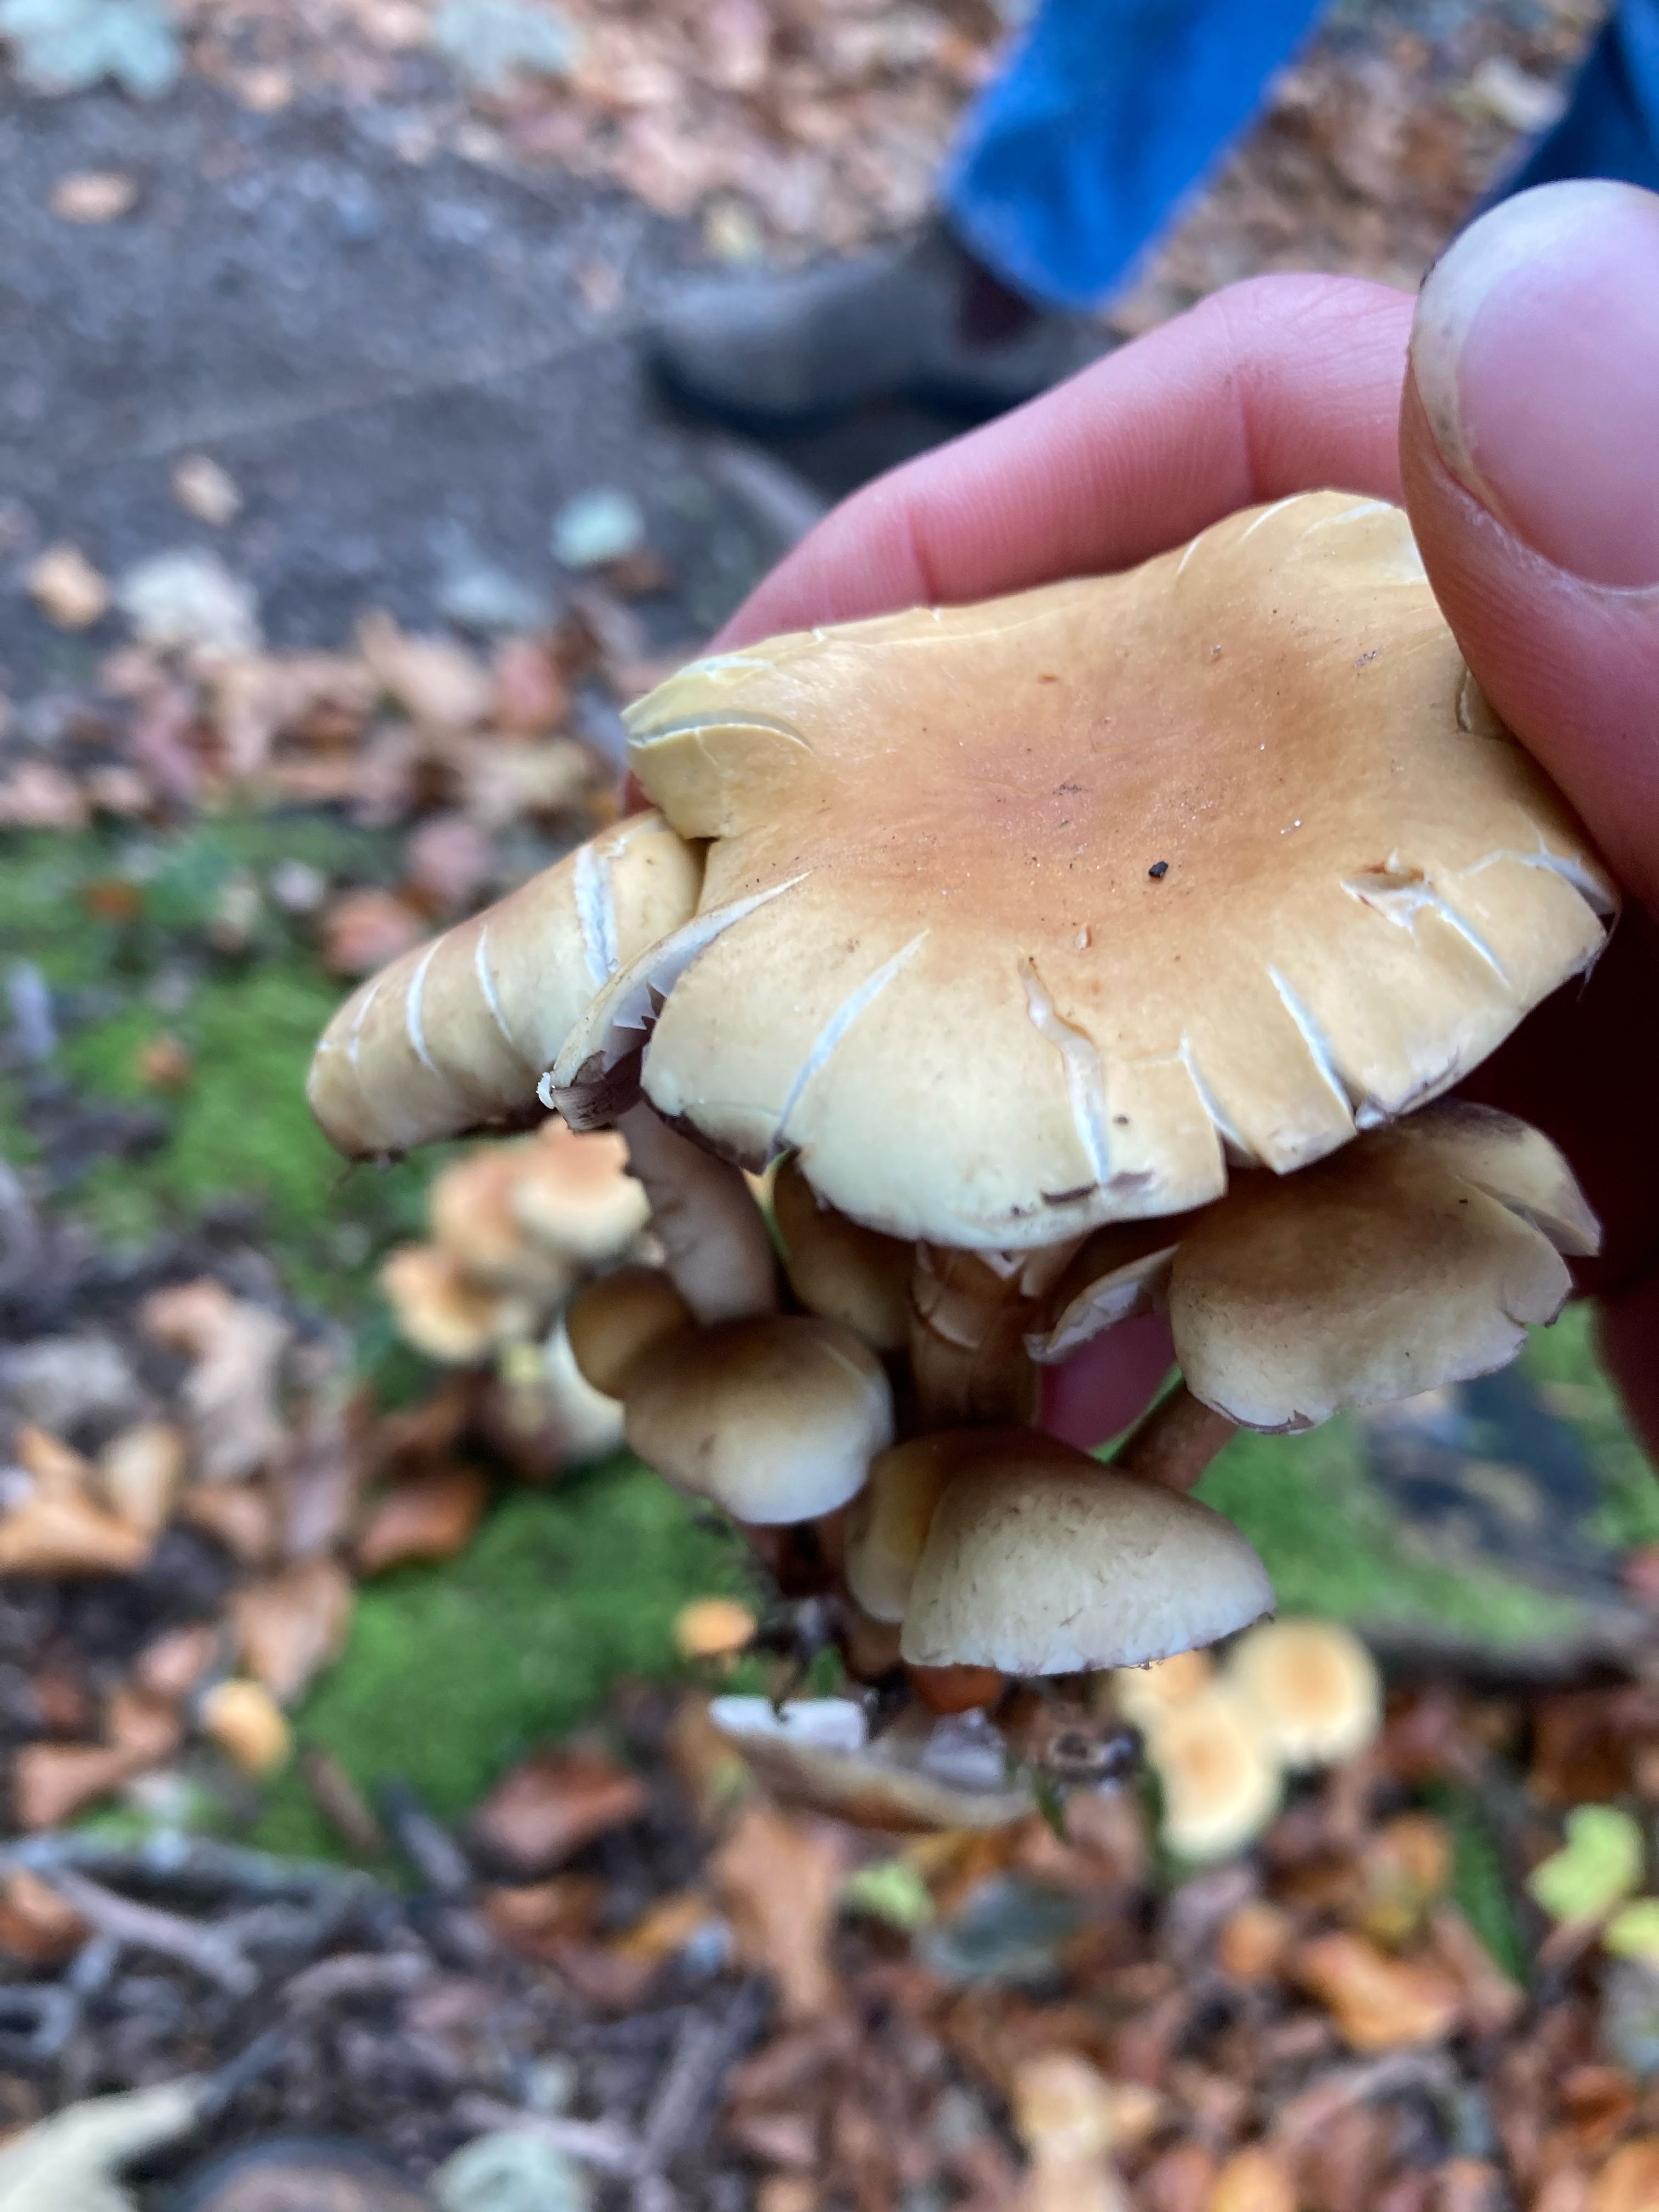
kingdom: Fungi
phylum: Basidiomycota
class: Agaricomycetes
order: Agaricales
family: Strophariaceae
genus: Hypholoma
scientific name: Hypholoma capnoides
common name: gran-svovlhat
